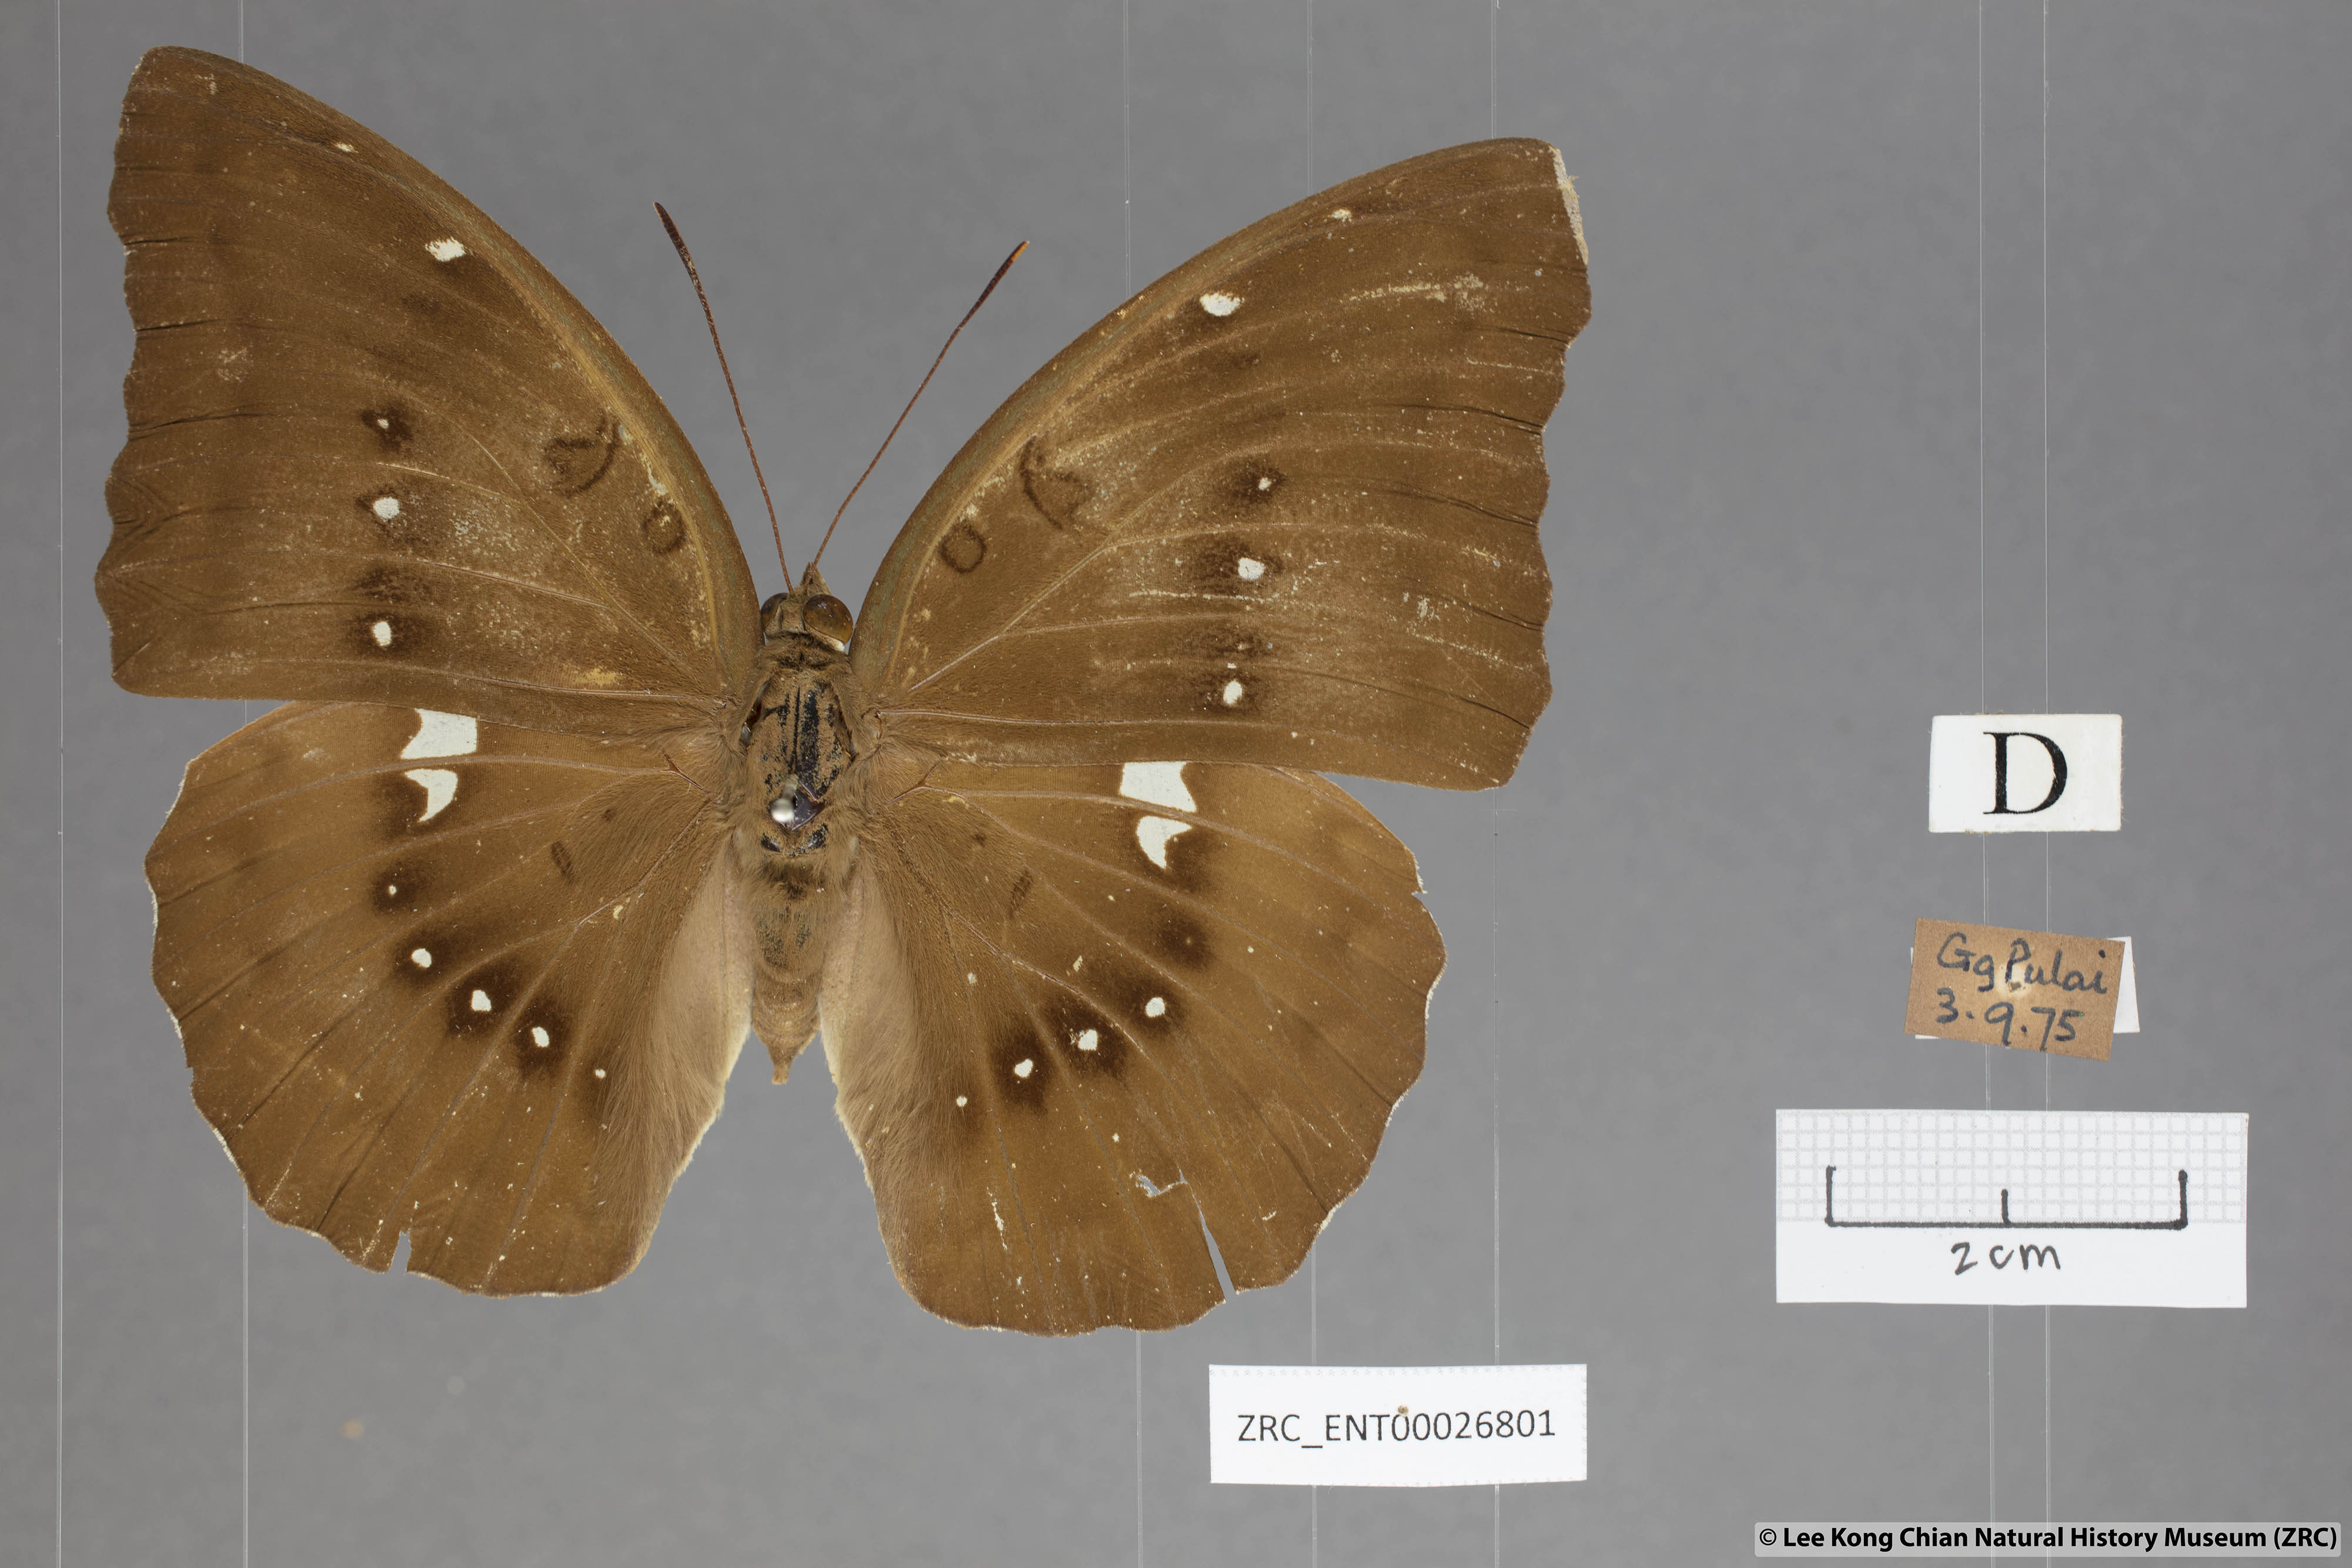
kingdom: Animalia
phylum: Arthropoda
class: Insecta
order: Lepidoptera
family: Nymphalidae
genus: Euthalia
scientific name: Euthalia Bassarona dunya
